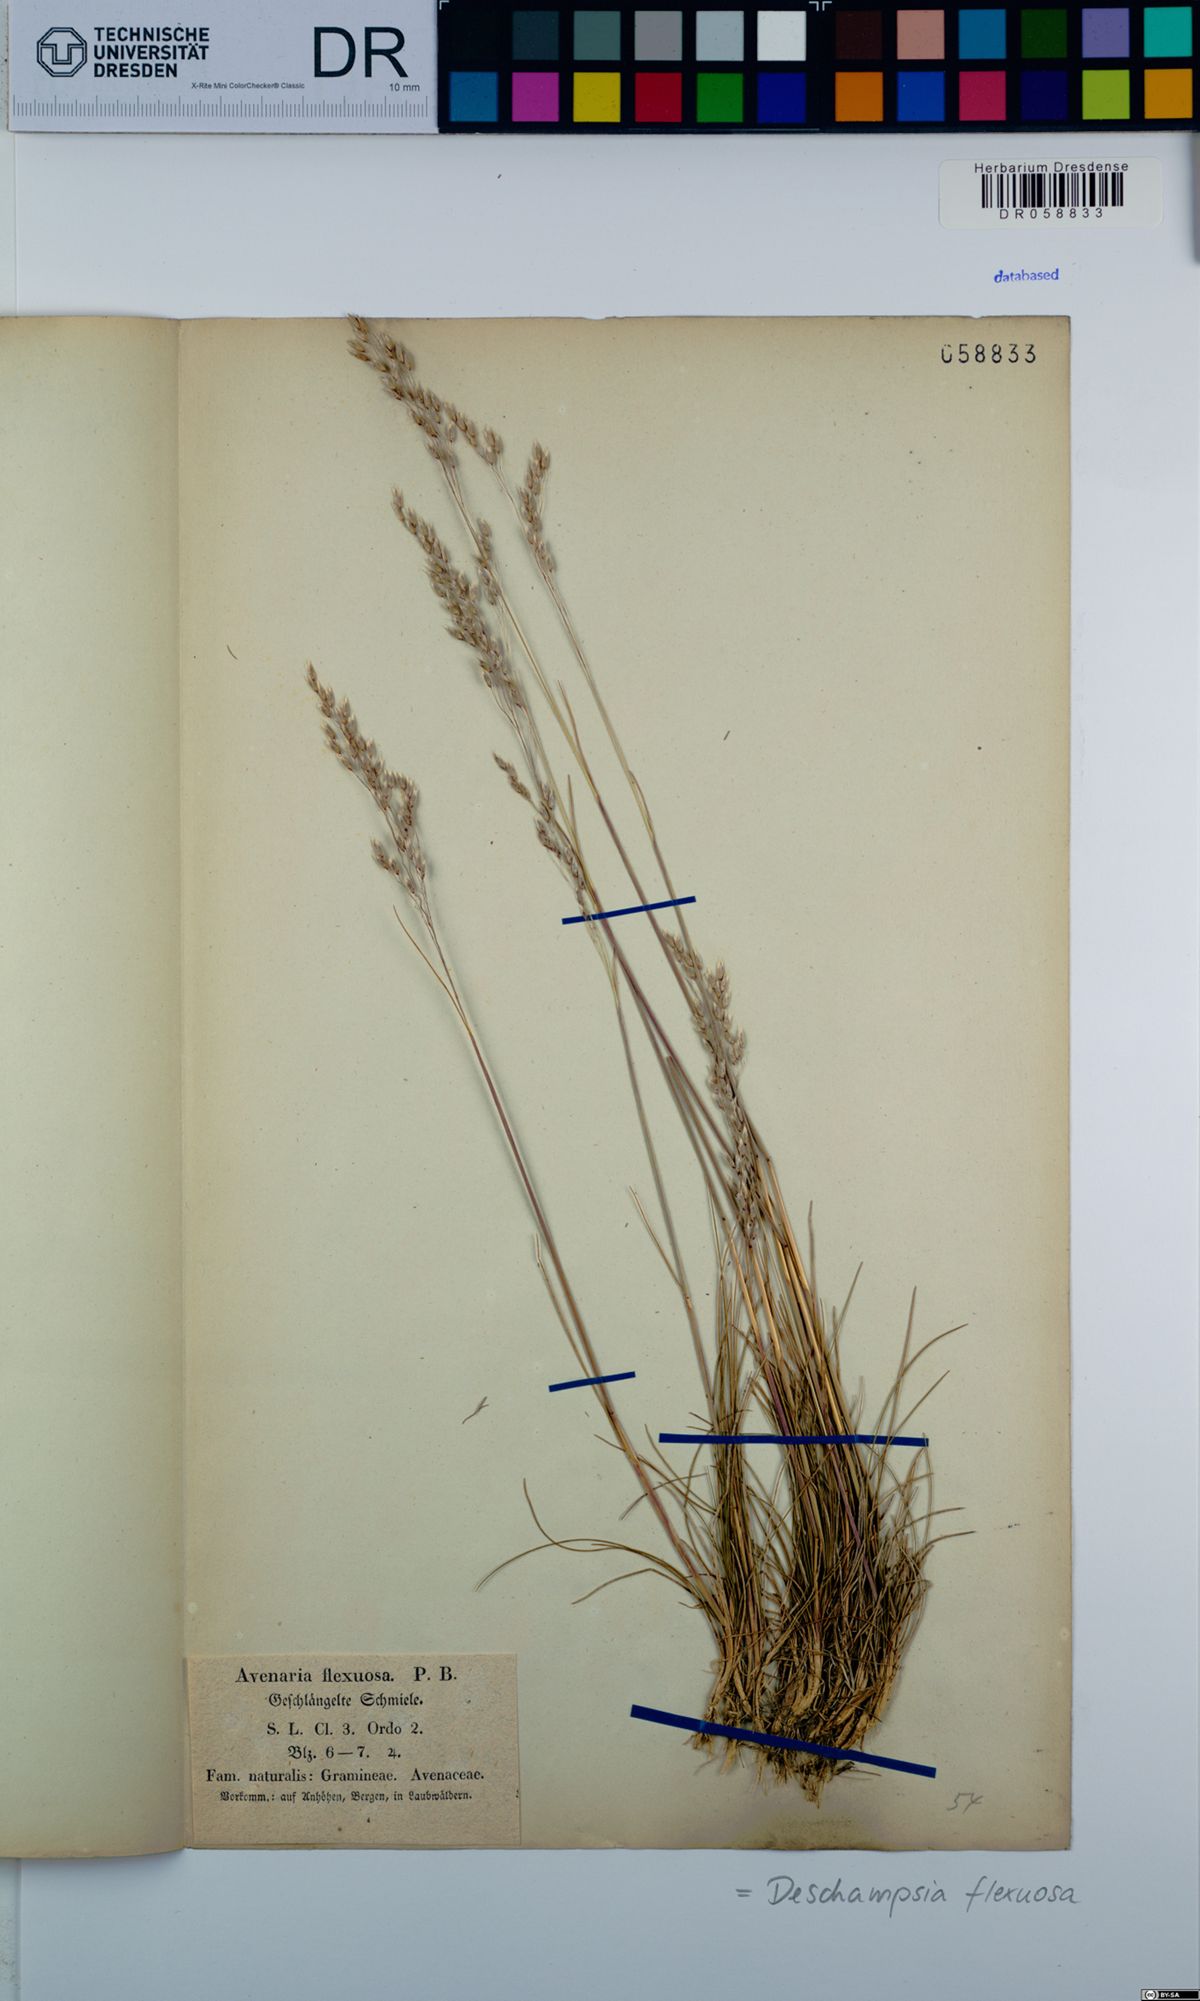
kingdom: Plantae
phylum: Tracheophyta
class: Liliopsida
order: Poales
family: Poaceae
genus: Avenella
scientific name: Avenella flexuosa
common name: Wavy hairgrass
